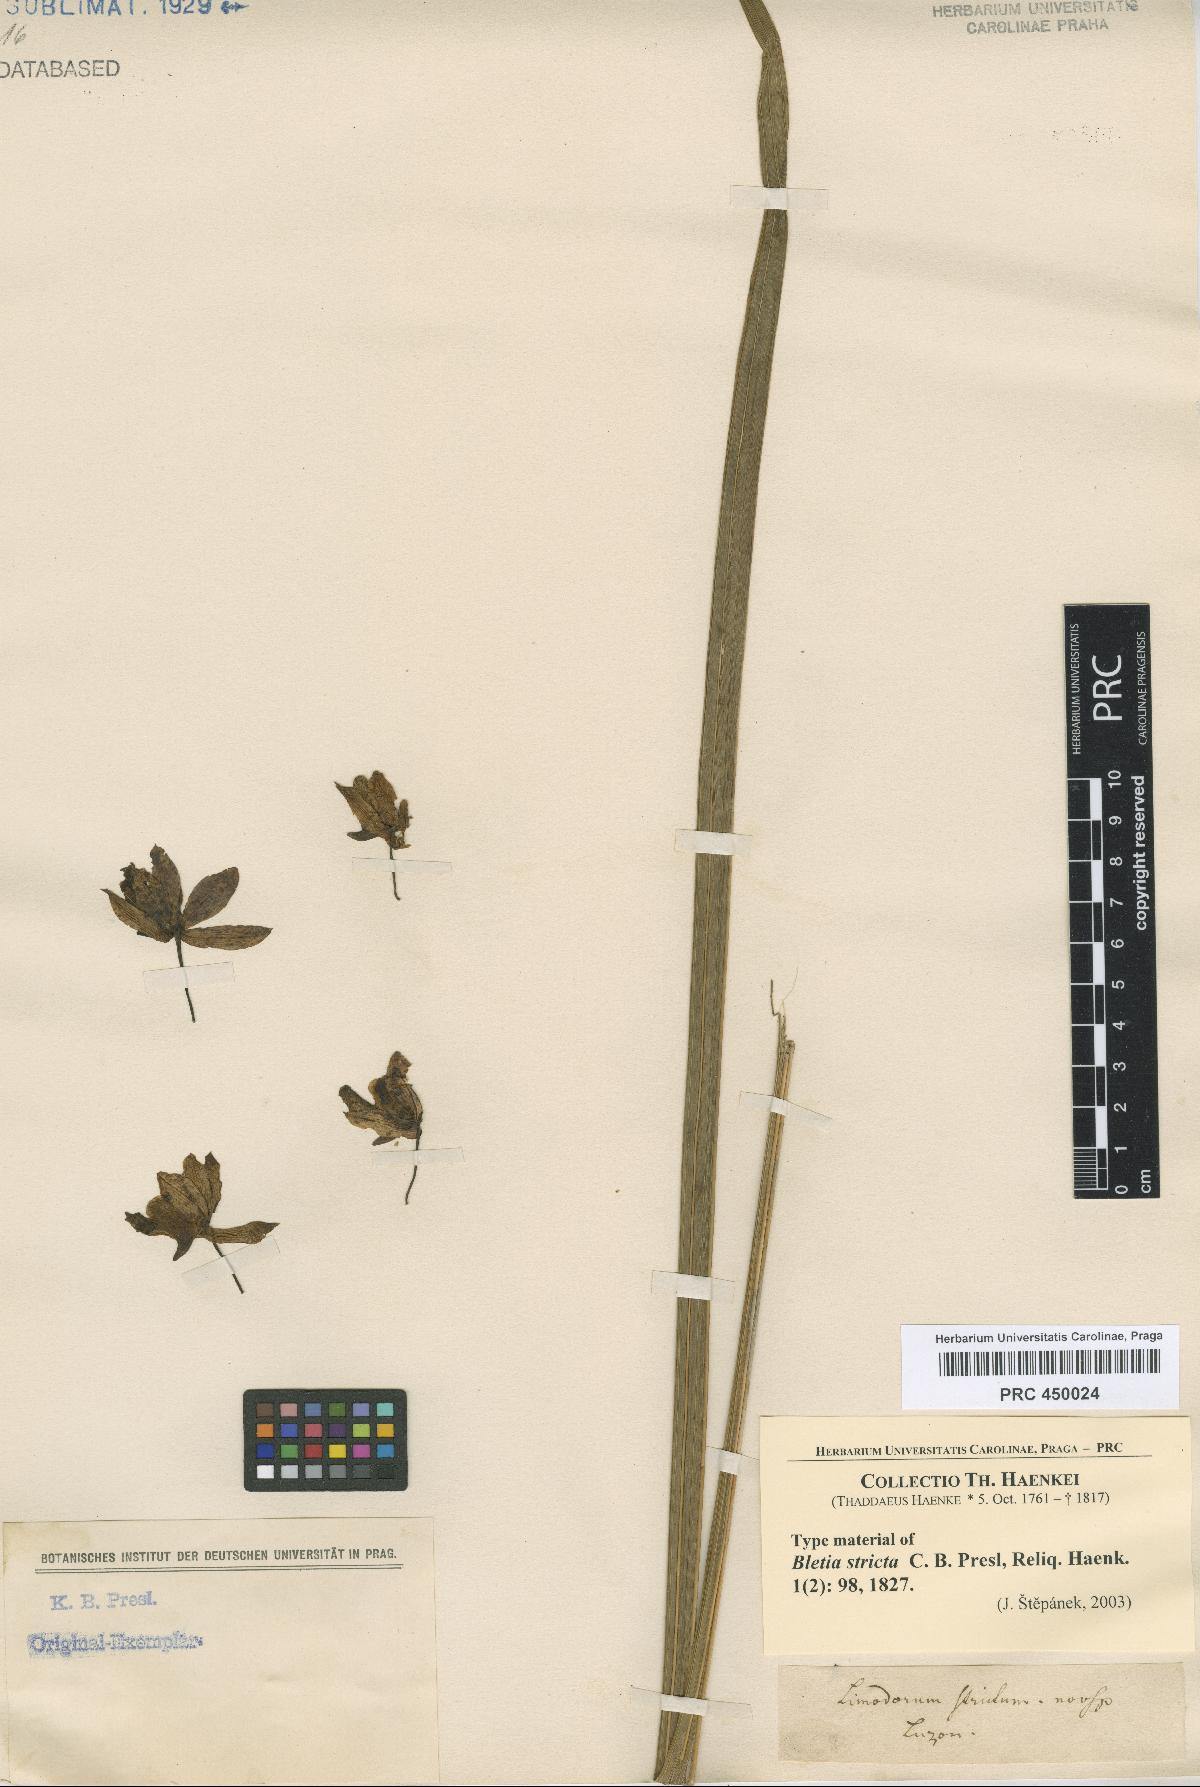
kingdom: Plantae
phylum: Tracheophyta
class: Liliopsida
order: Asparagales
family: Orchidaceae
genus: Eulophia
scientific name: Eulophia exaltata
